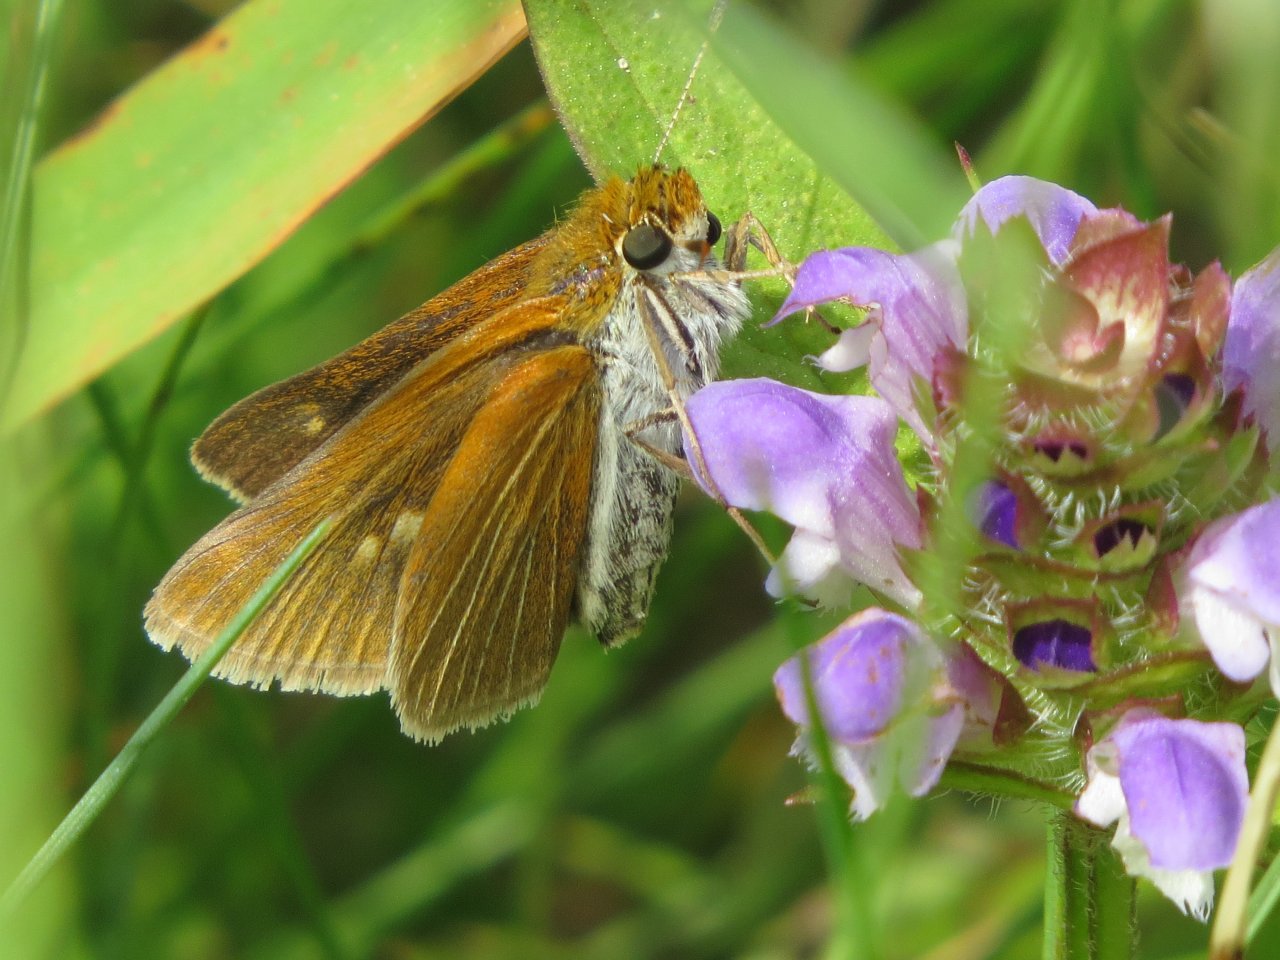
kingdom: Animalia
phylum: Arthropoda
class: Insecta
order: Lepidoptera
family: Hesperiidae
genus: Euphyes
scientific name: Euphyes bimacula
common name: Two-spotted Skipper
